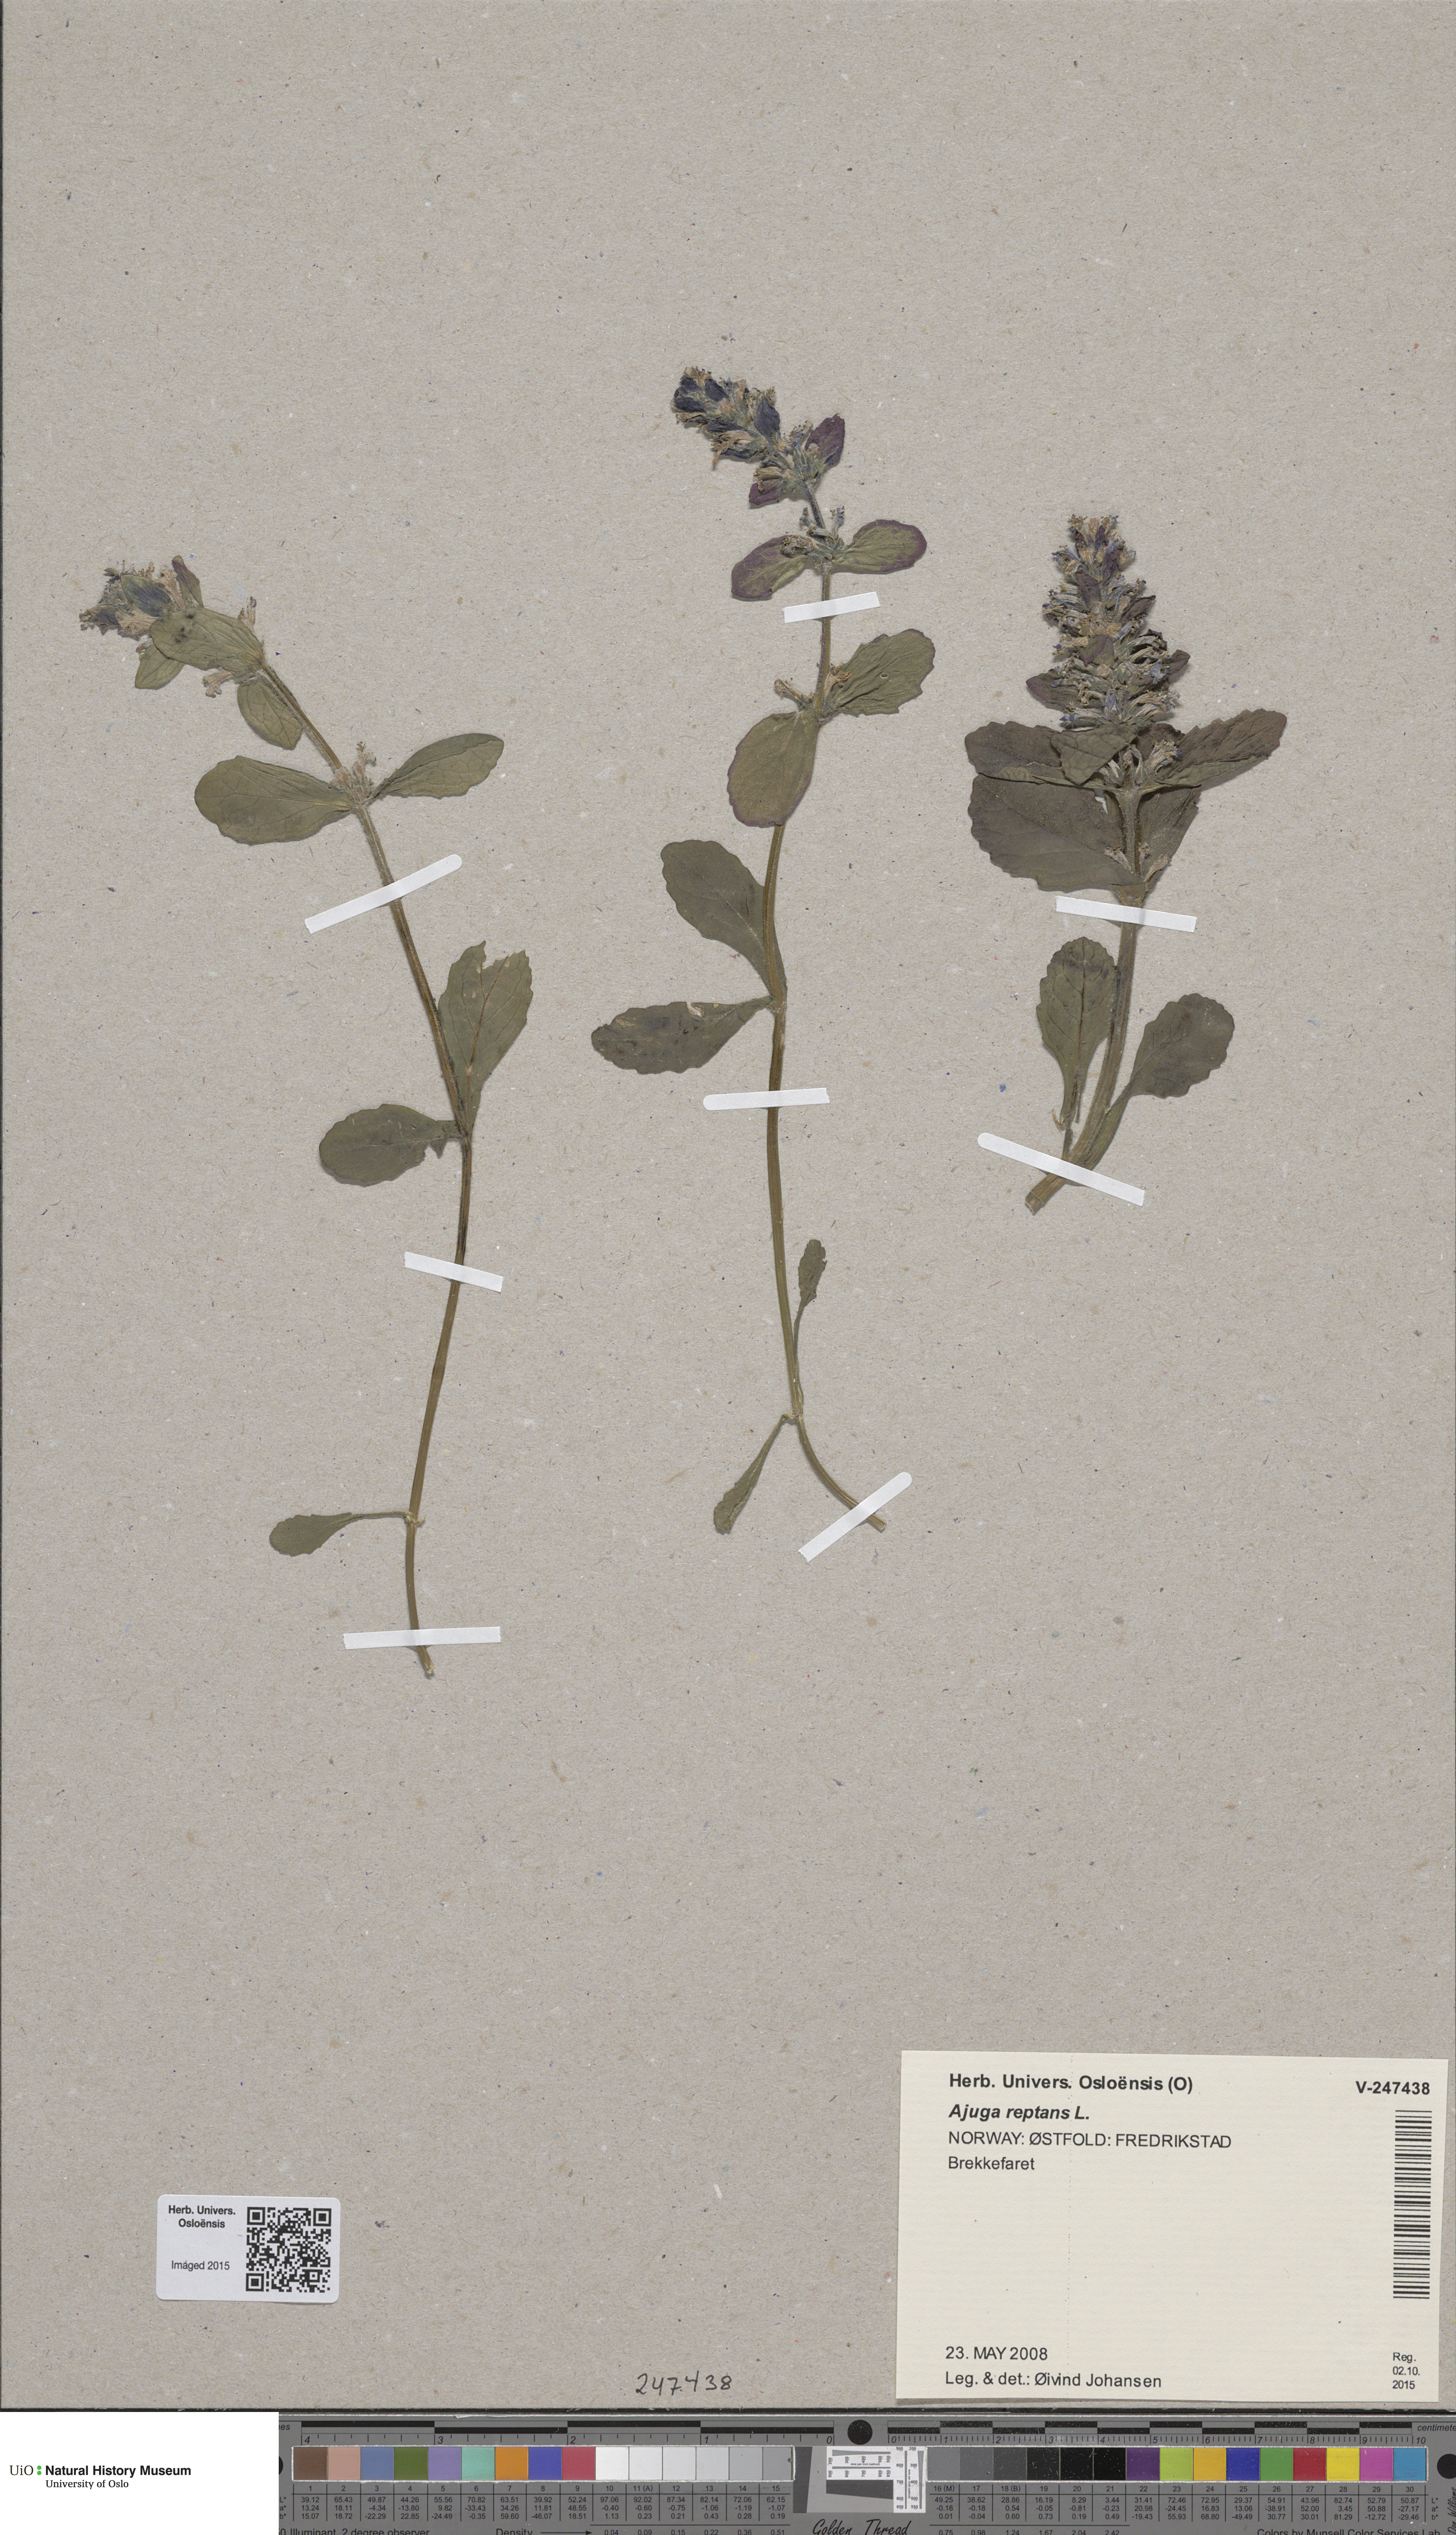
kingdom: Plantae
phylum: Tracheophyta
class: Magnoliopsida
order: Lamiales
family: Lamiaceae
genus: Ajuga
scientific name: Ajuga reptans
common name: Bugle
